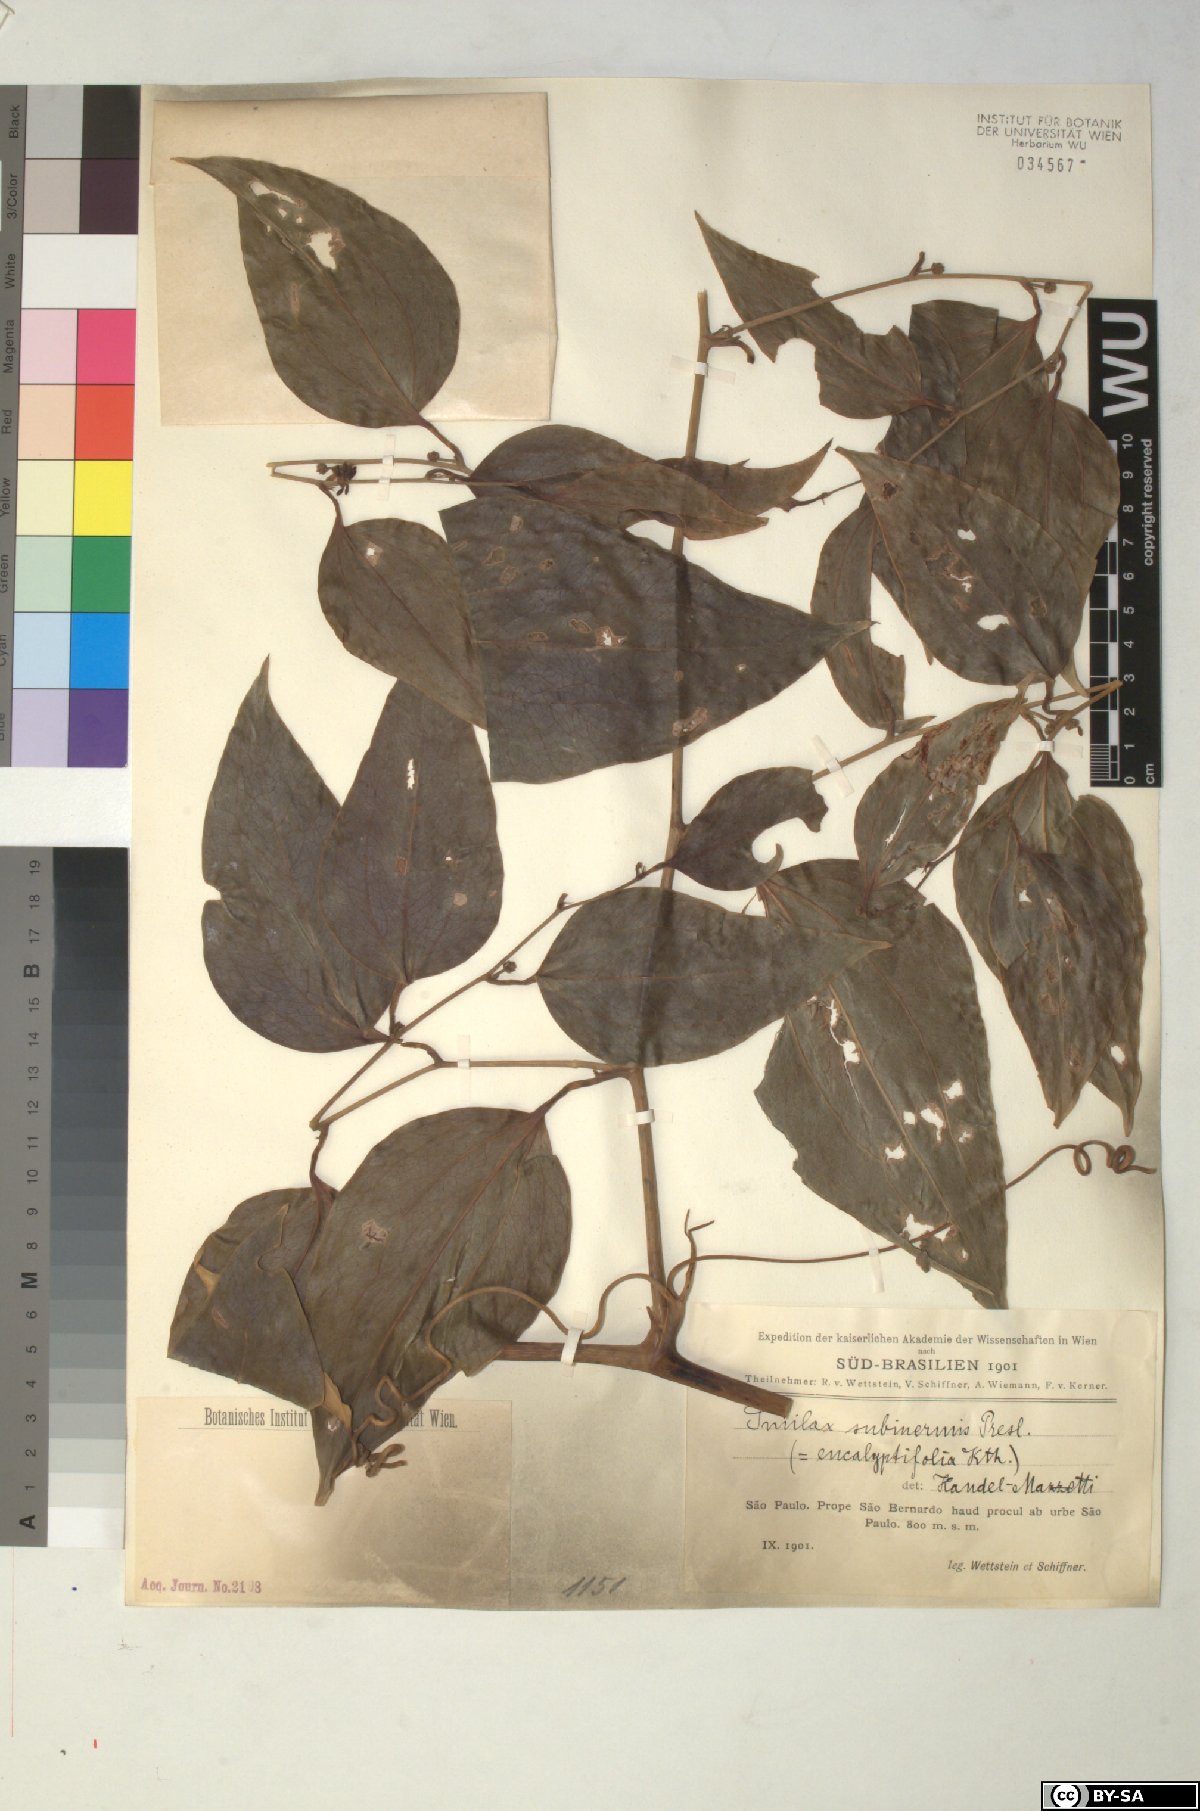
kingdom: Plantae
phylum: Tracheophyta
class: Liliopsida
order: Liliales
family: Smilacaceae
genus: Smilax
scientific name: Smilax subinermis
